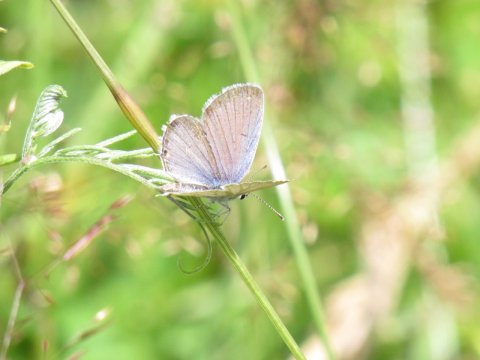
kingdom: Animalia
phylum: Arthropoda
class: Insecta
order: Lepidoptera
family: Lycaenidae
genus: Elkalyce
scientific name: Elkalyce comyntas
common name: Eastern Tailed-Blue
